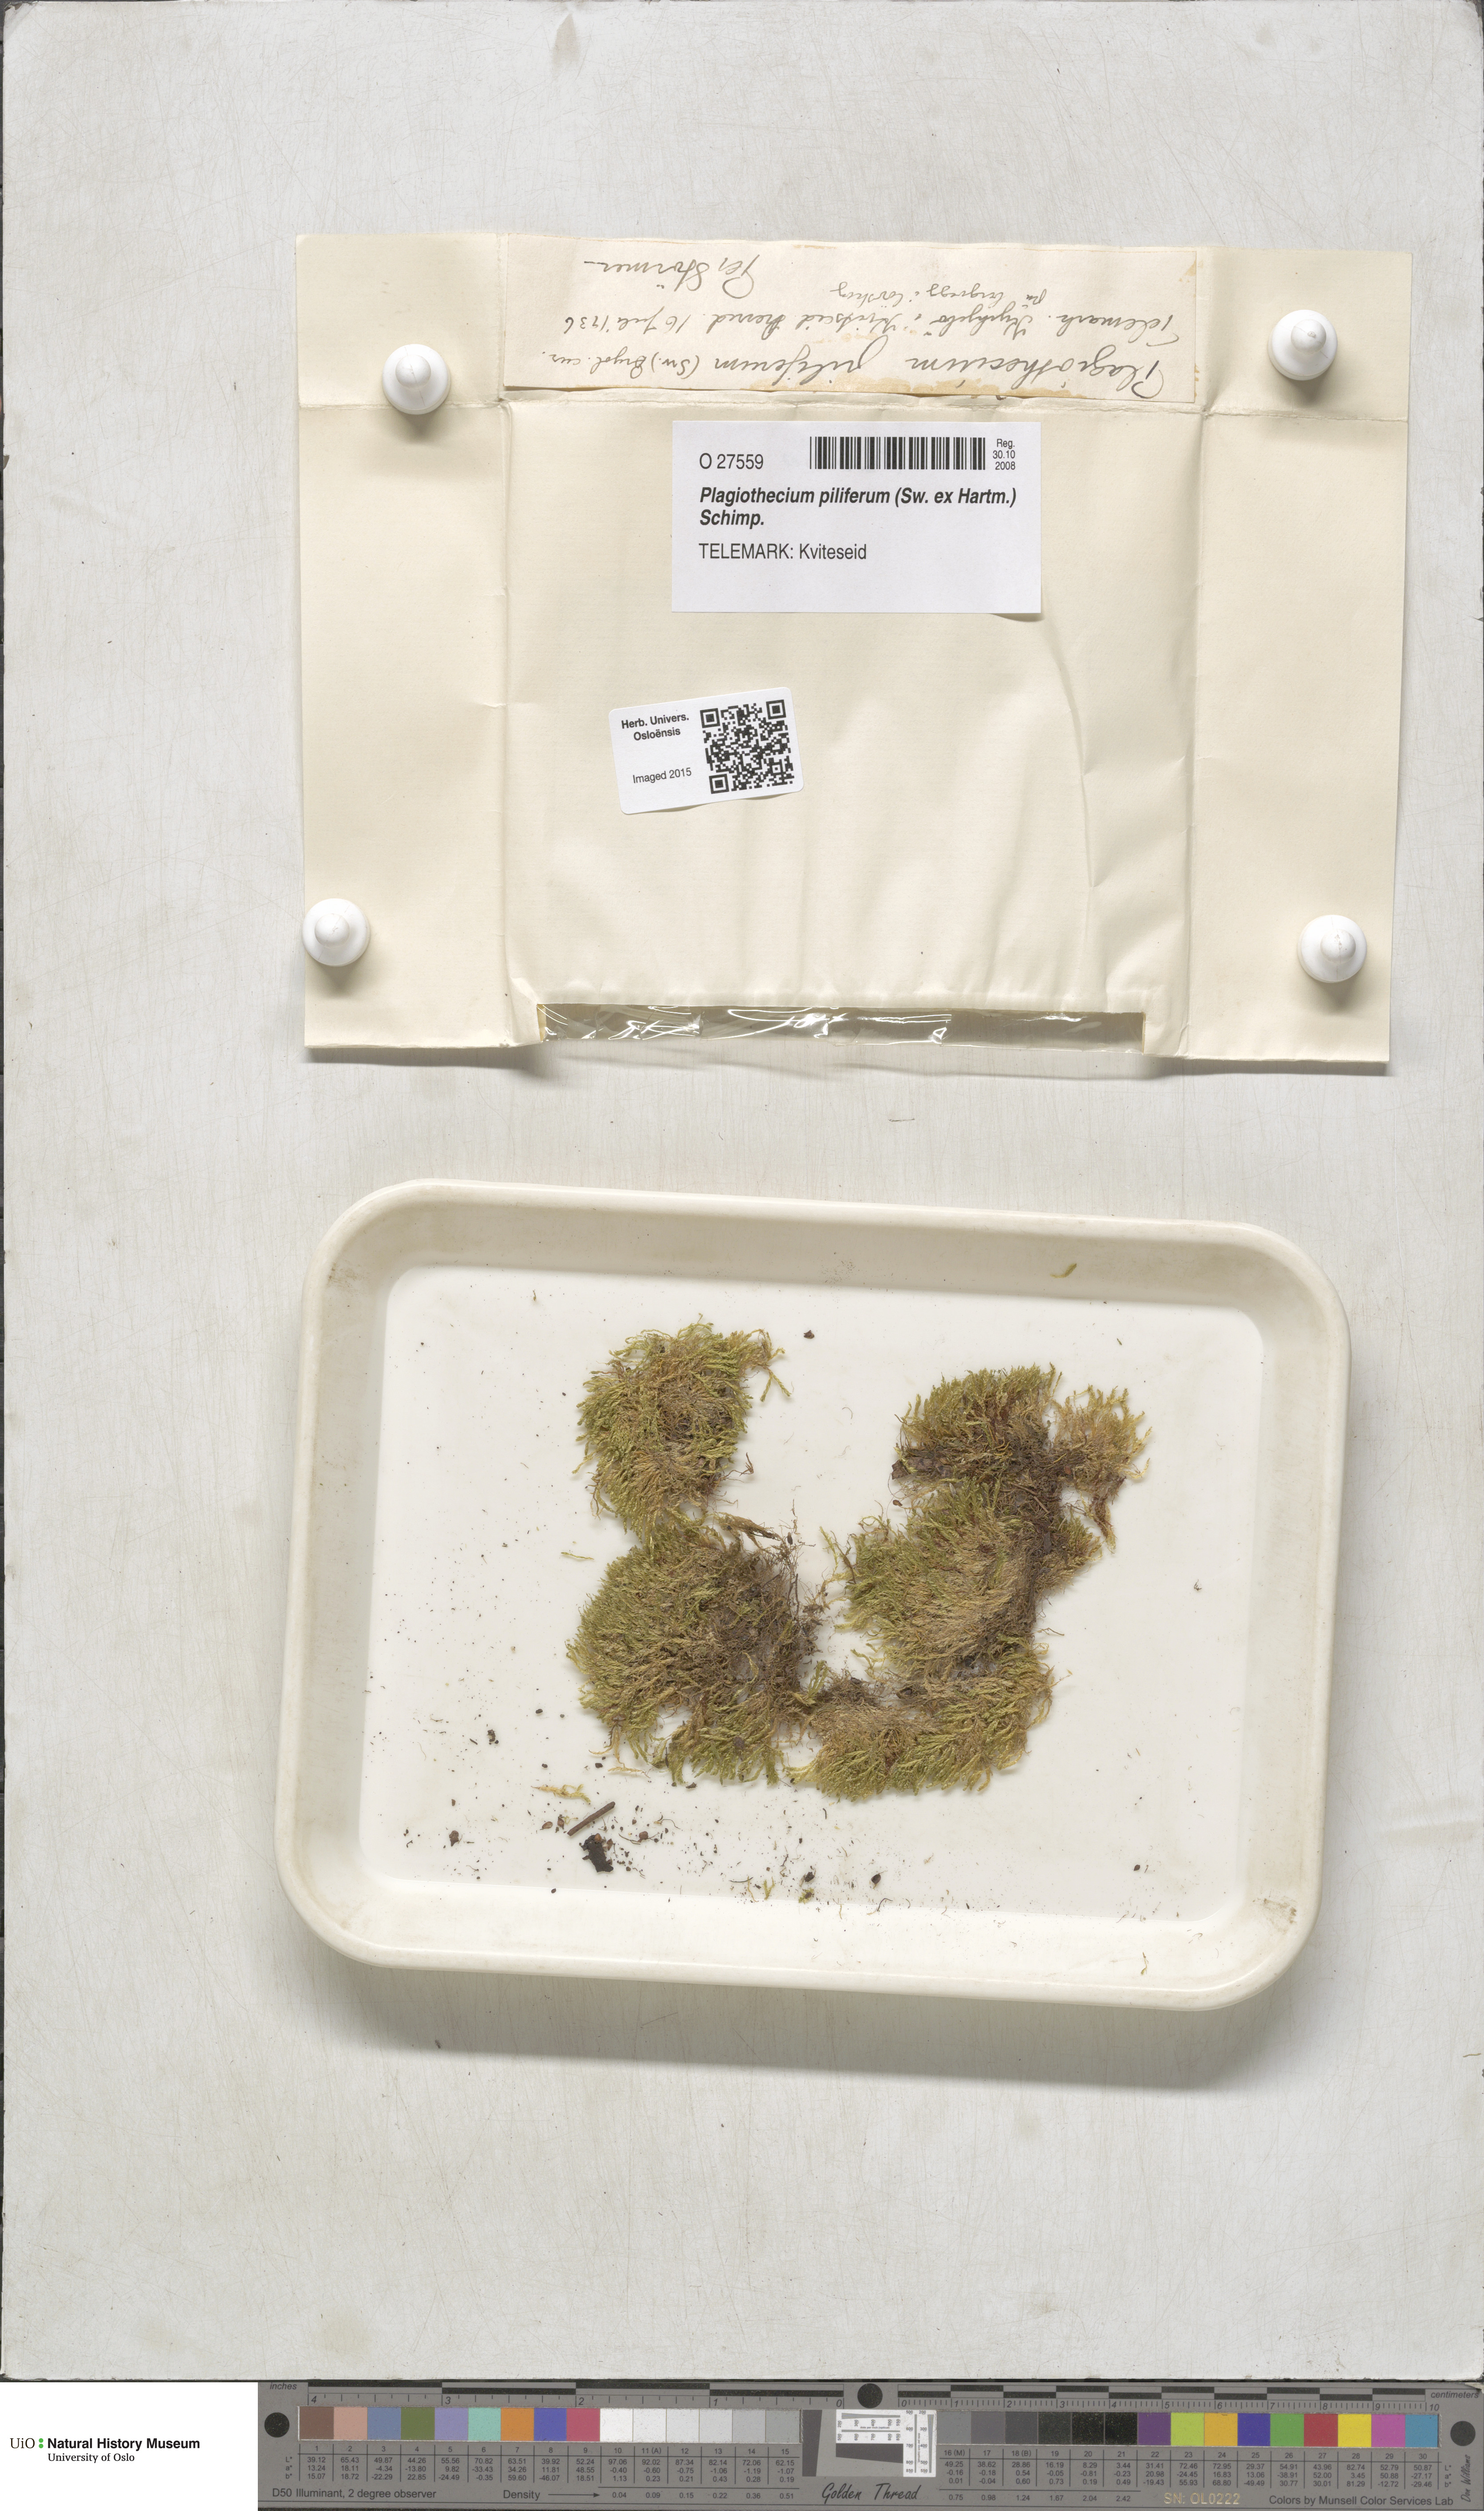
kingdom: Plantae
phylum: Bryophyta
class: Bryopsida
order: Hypnales
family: Plagiotheciaceae
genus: Rectithecium
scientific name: Rectithecium piliferum
